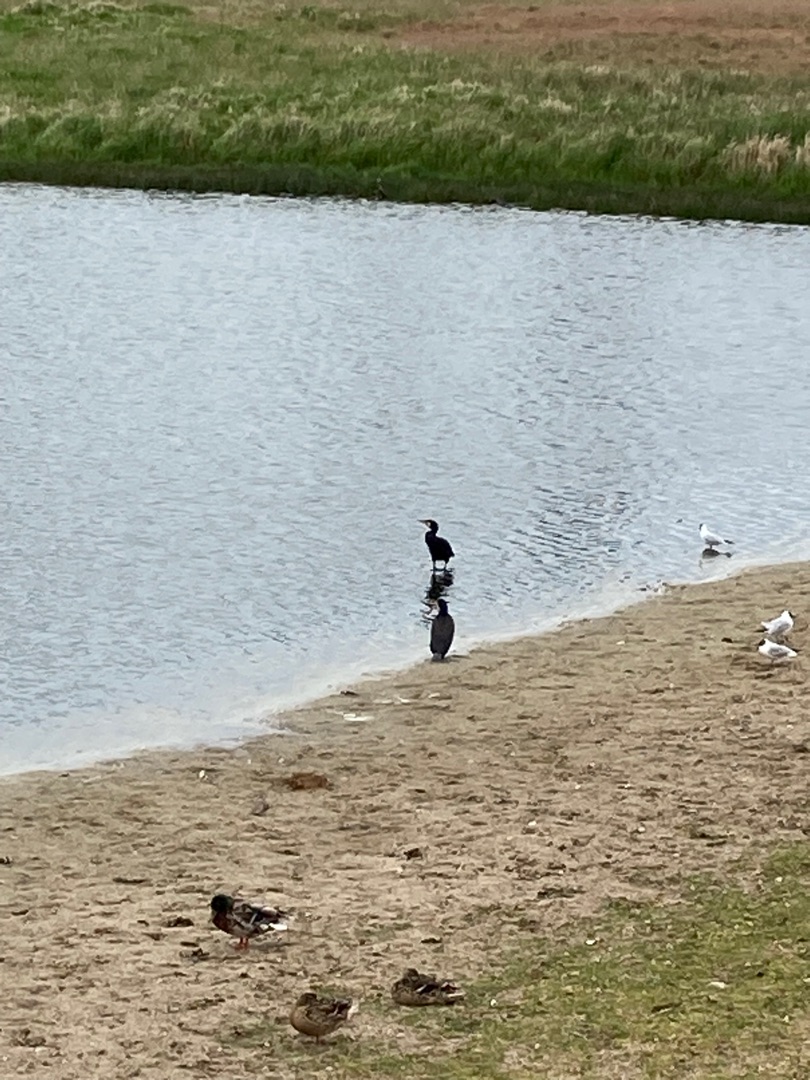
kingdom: Animalia
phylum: Chordata
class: Aves
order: Suliformes
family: Phalacrocoracidae
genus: Phalacrocorax
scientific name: Phalacrocorax carbo
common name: Skarv
